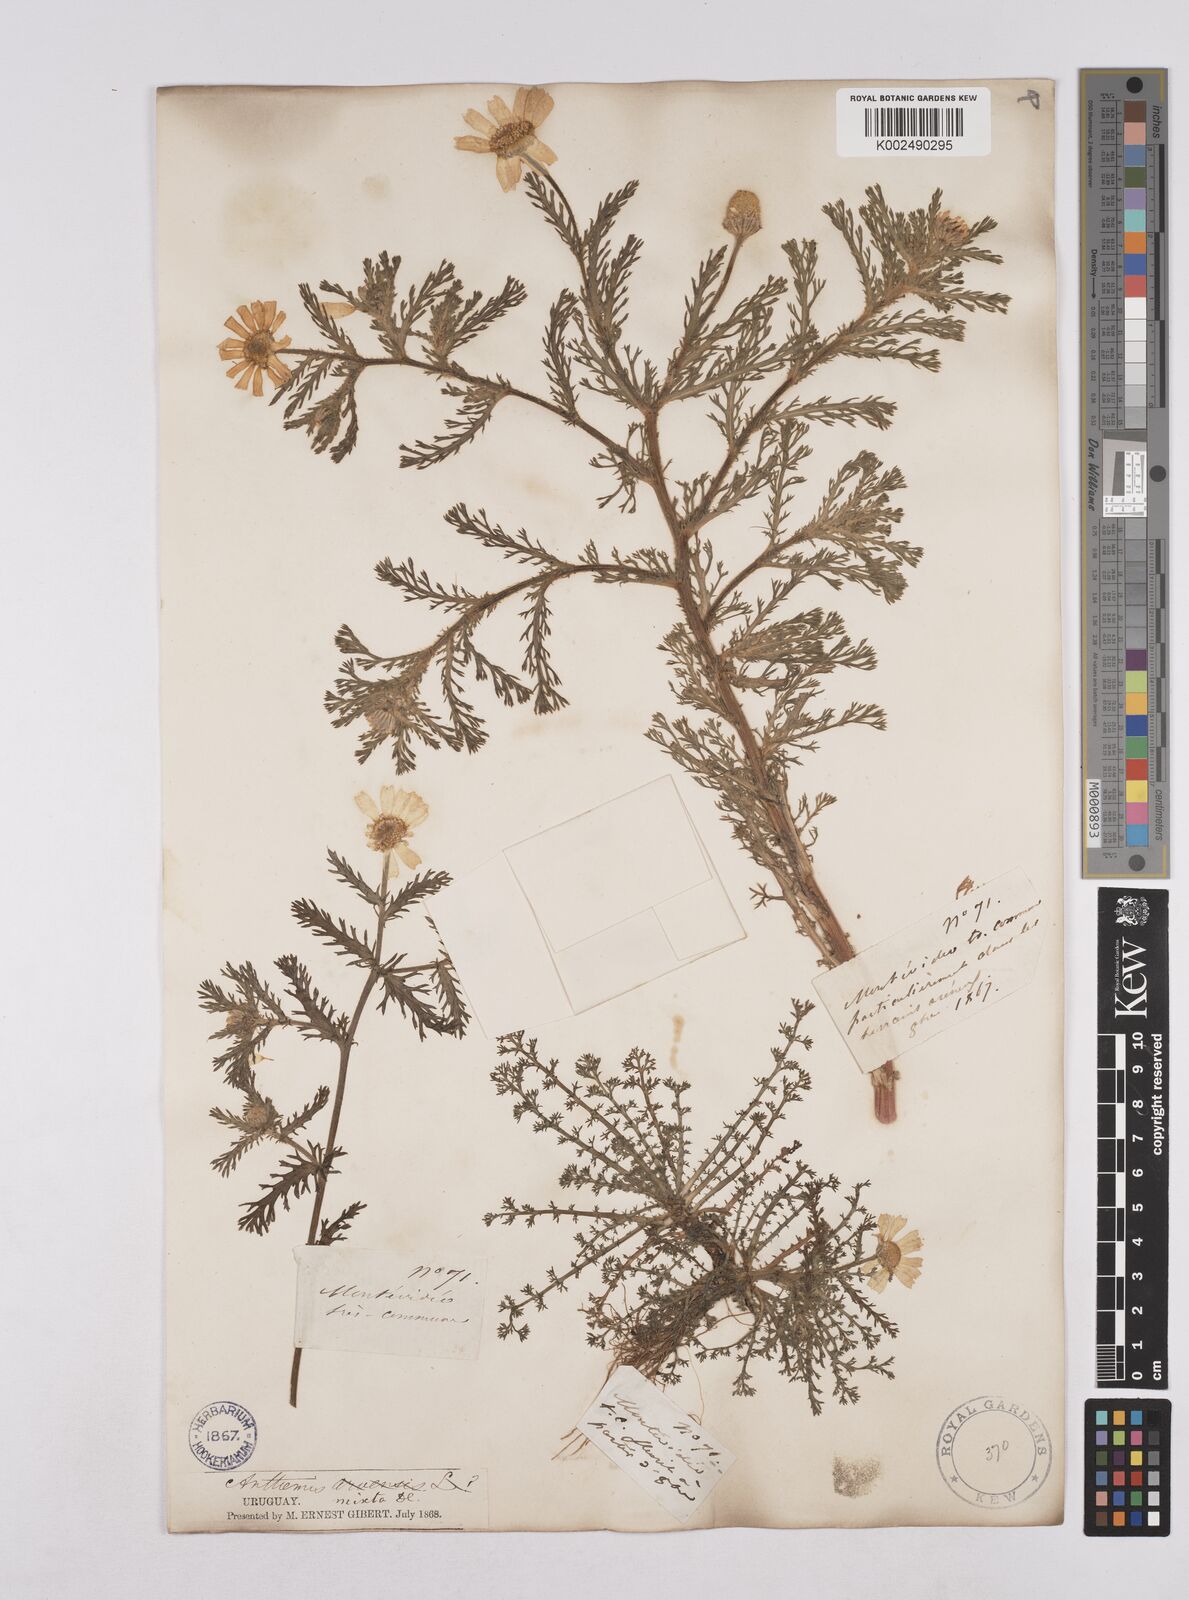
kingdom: Plantae
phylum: Tracheophyta
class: Magnoliopsida
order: Asterales
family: Asteraceae
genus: Cladanthus
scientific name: Cladanthus mixtus
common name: Weedy dogfennel
